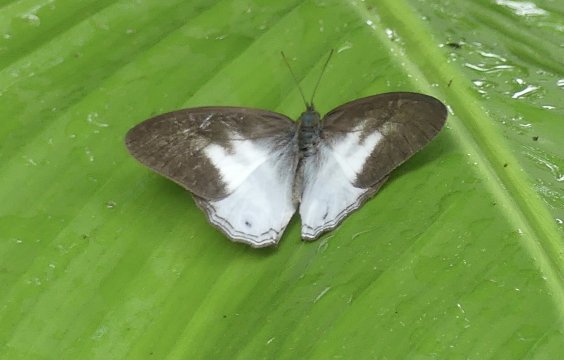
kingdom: Animalia
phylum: Arthropoda
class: Insecta
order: Lepidoptera
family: Nymphalidae
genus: Pareuptychia
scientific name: Pareuptychia metaleuca
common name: White-banded Satyr
